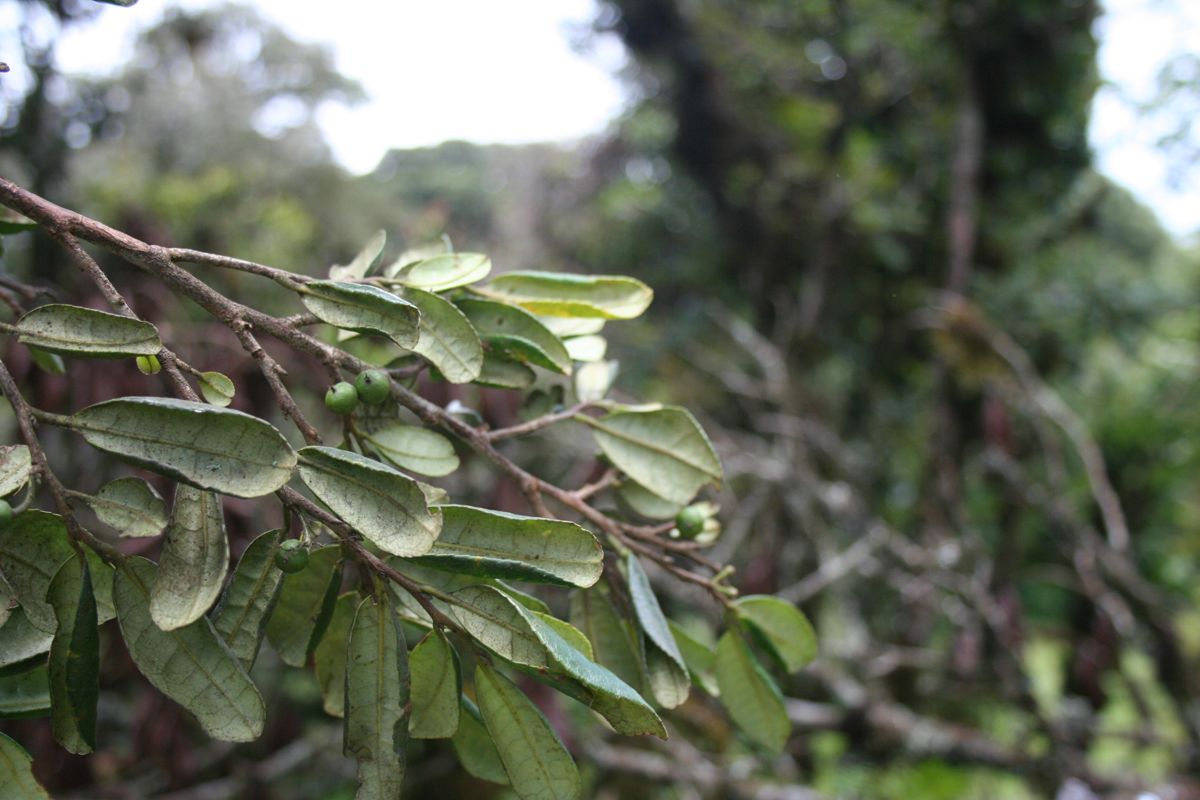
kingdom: Plantae
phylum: Tracheophyta
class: Magnoliopsida
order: Ericales
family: Pentaphylacaceae
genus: Cleyera
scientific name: Cleyera theaeoides
